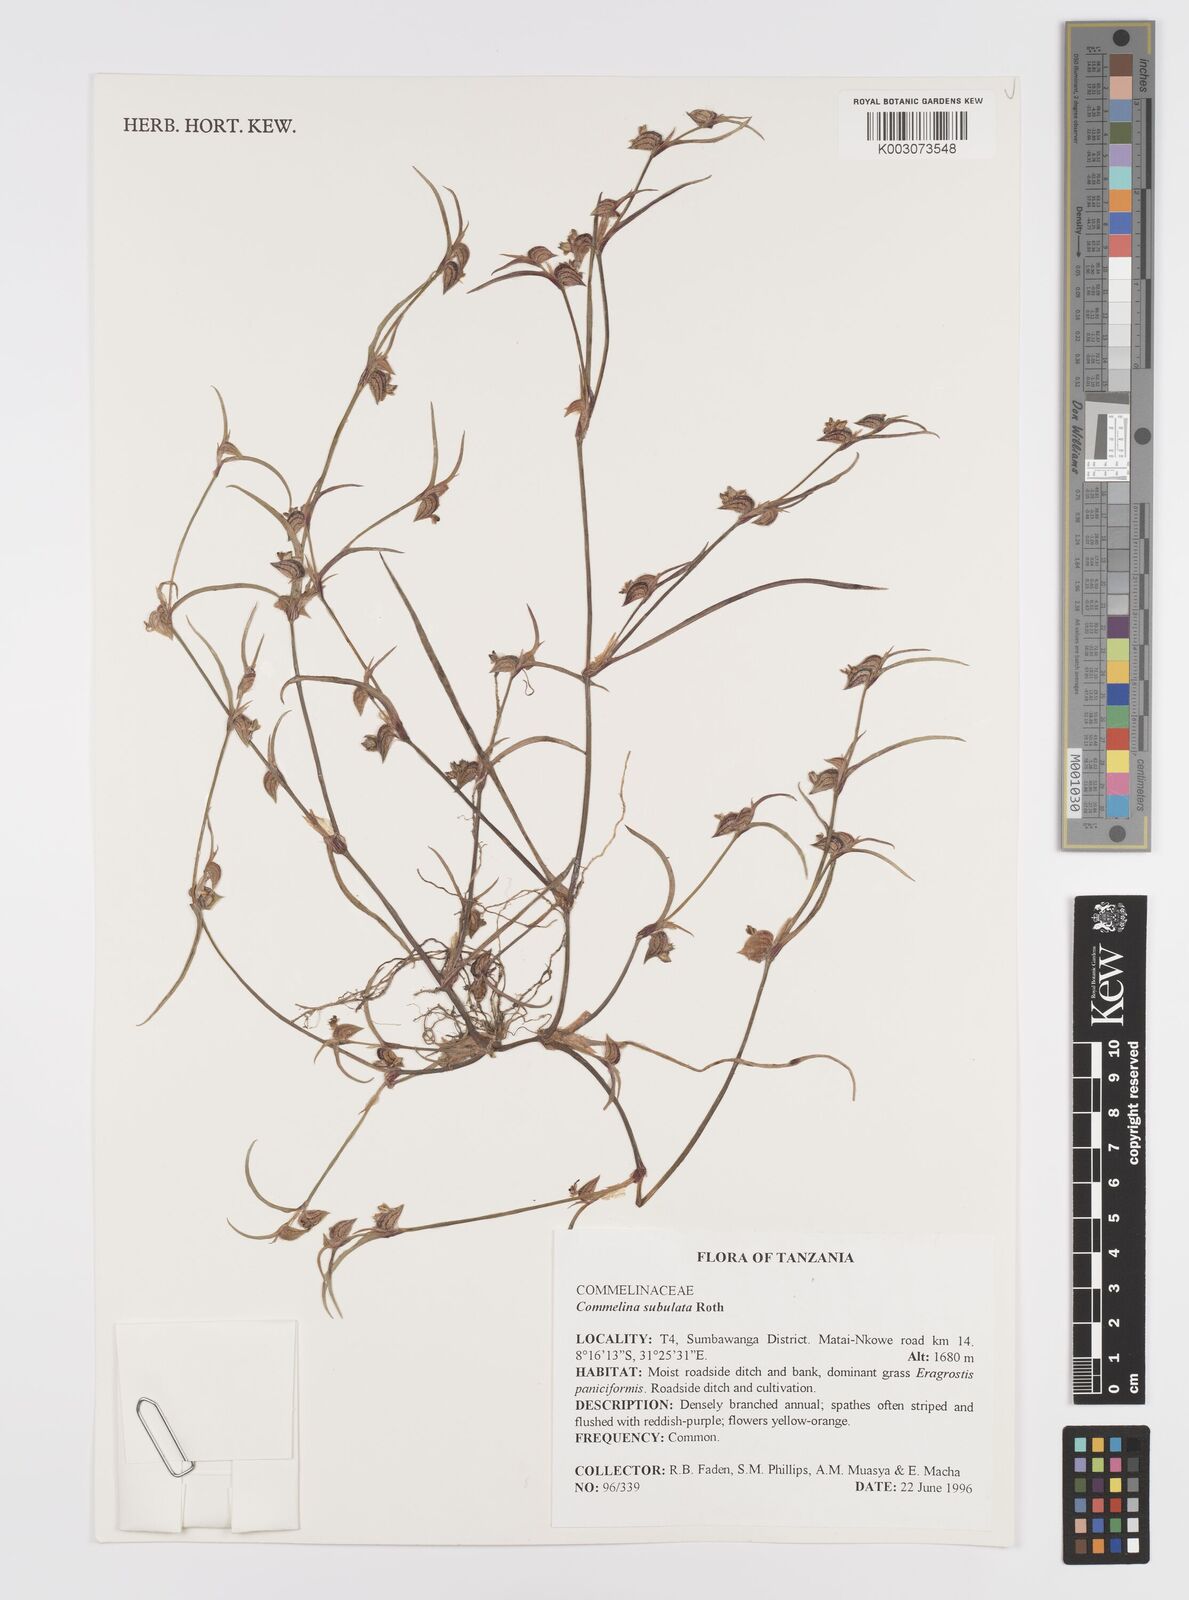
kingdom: Plantae
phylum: Tracheophyta
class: Liliopsida
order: Commelinales
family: Commelinaceae
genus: Commelina
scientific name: Commelina subulata
